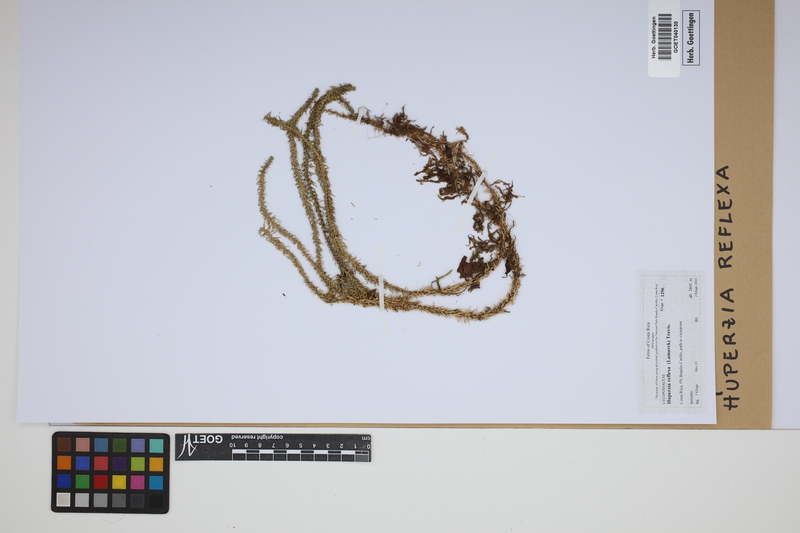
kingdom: Plantae
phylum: Tracheophyta
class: Lycopodiopsida
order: Lycopodiales
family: Lycopodiaceae
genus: Phlegmariurus
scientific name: Phlegmariurus reflexus
